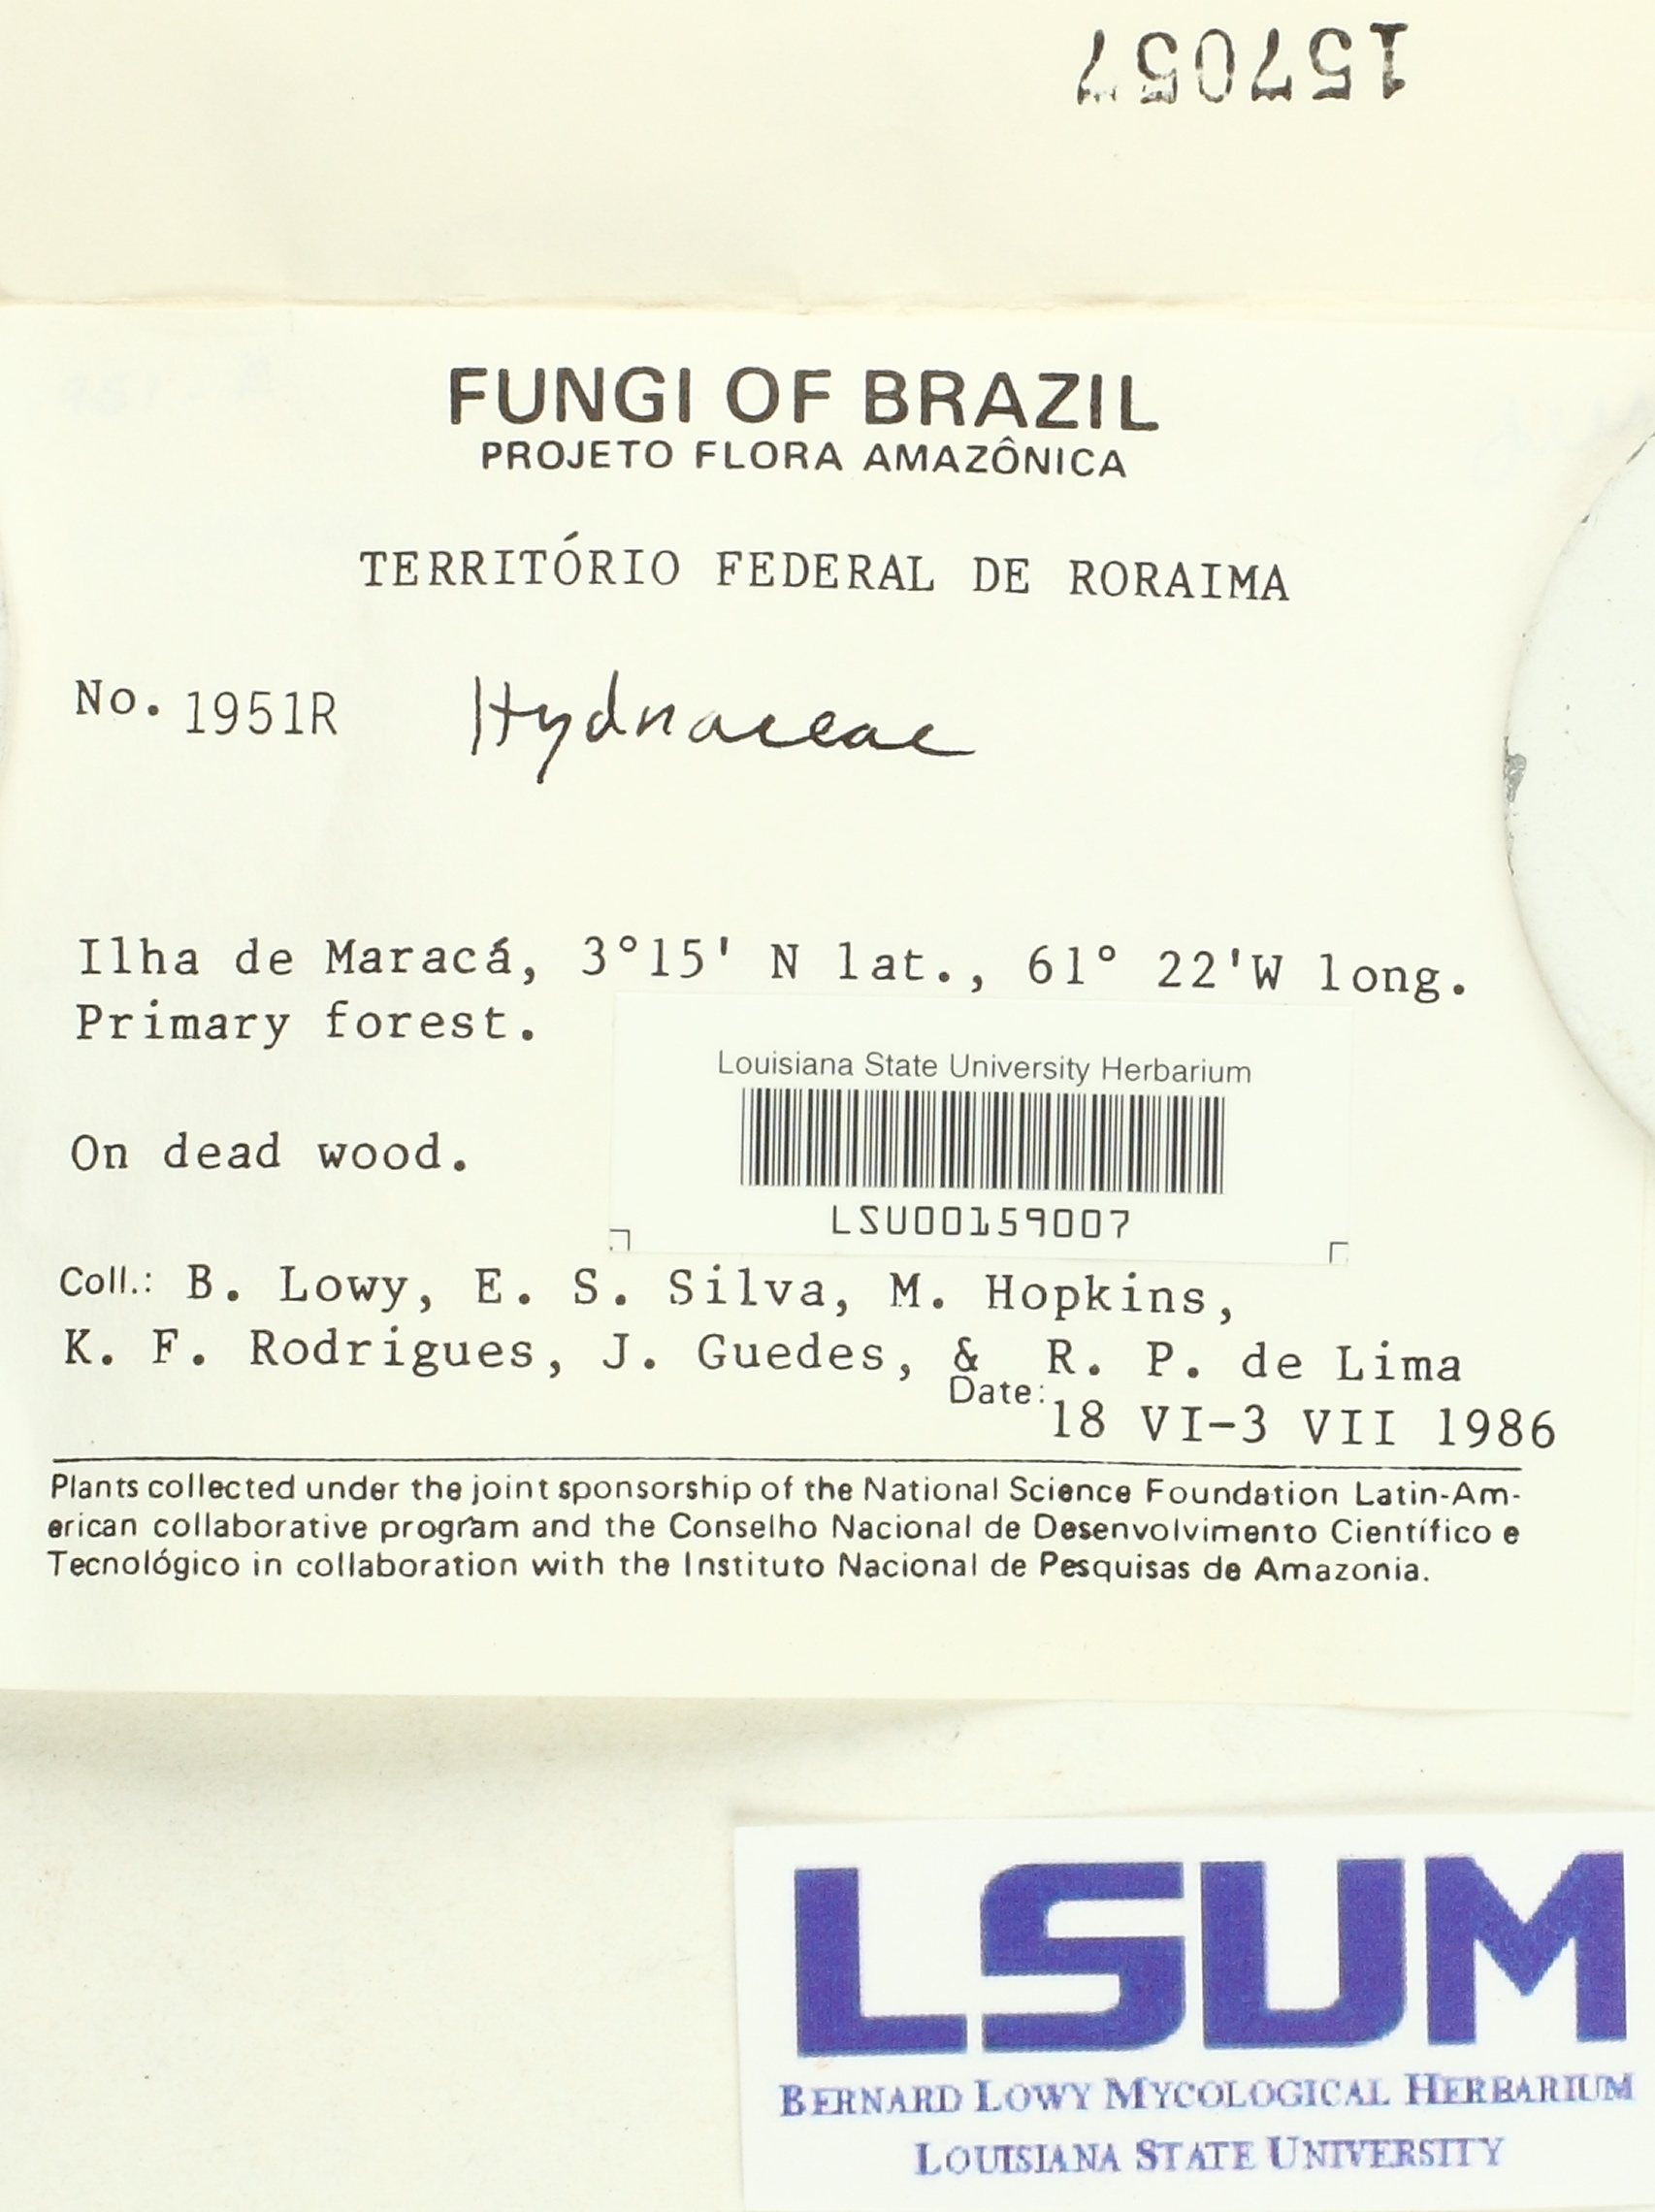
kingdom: Fungi
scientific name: Fungi
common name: Fungi
